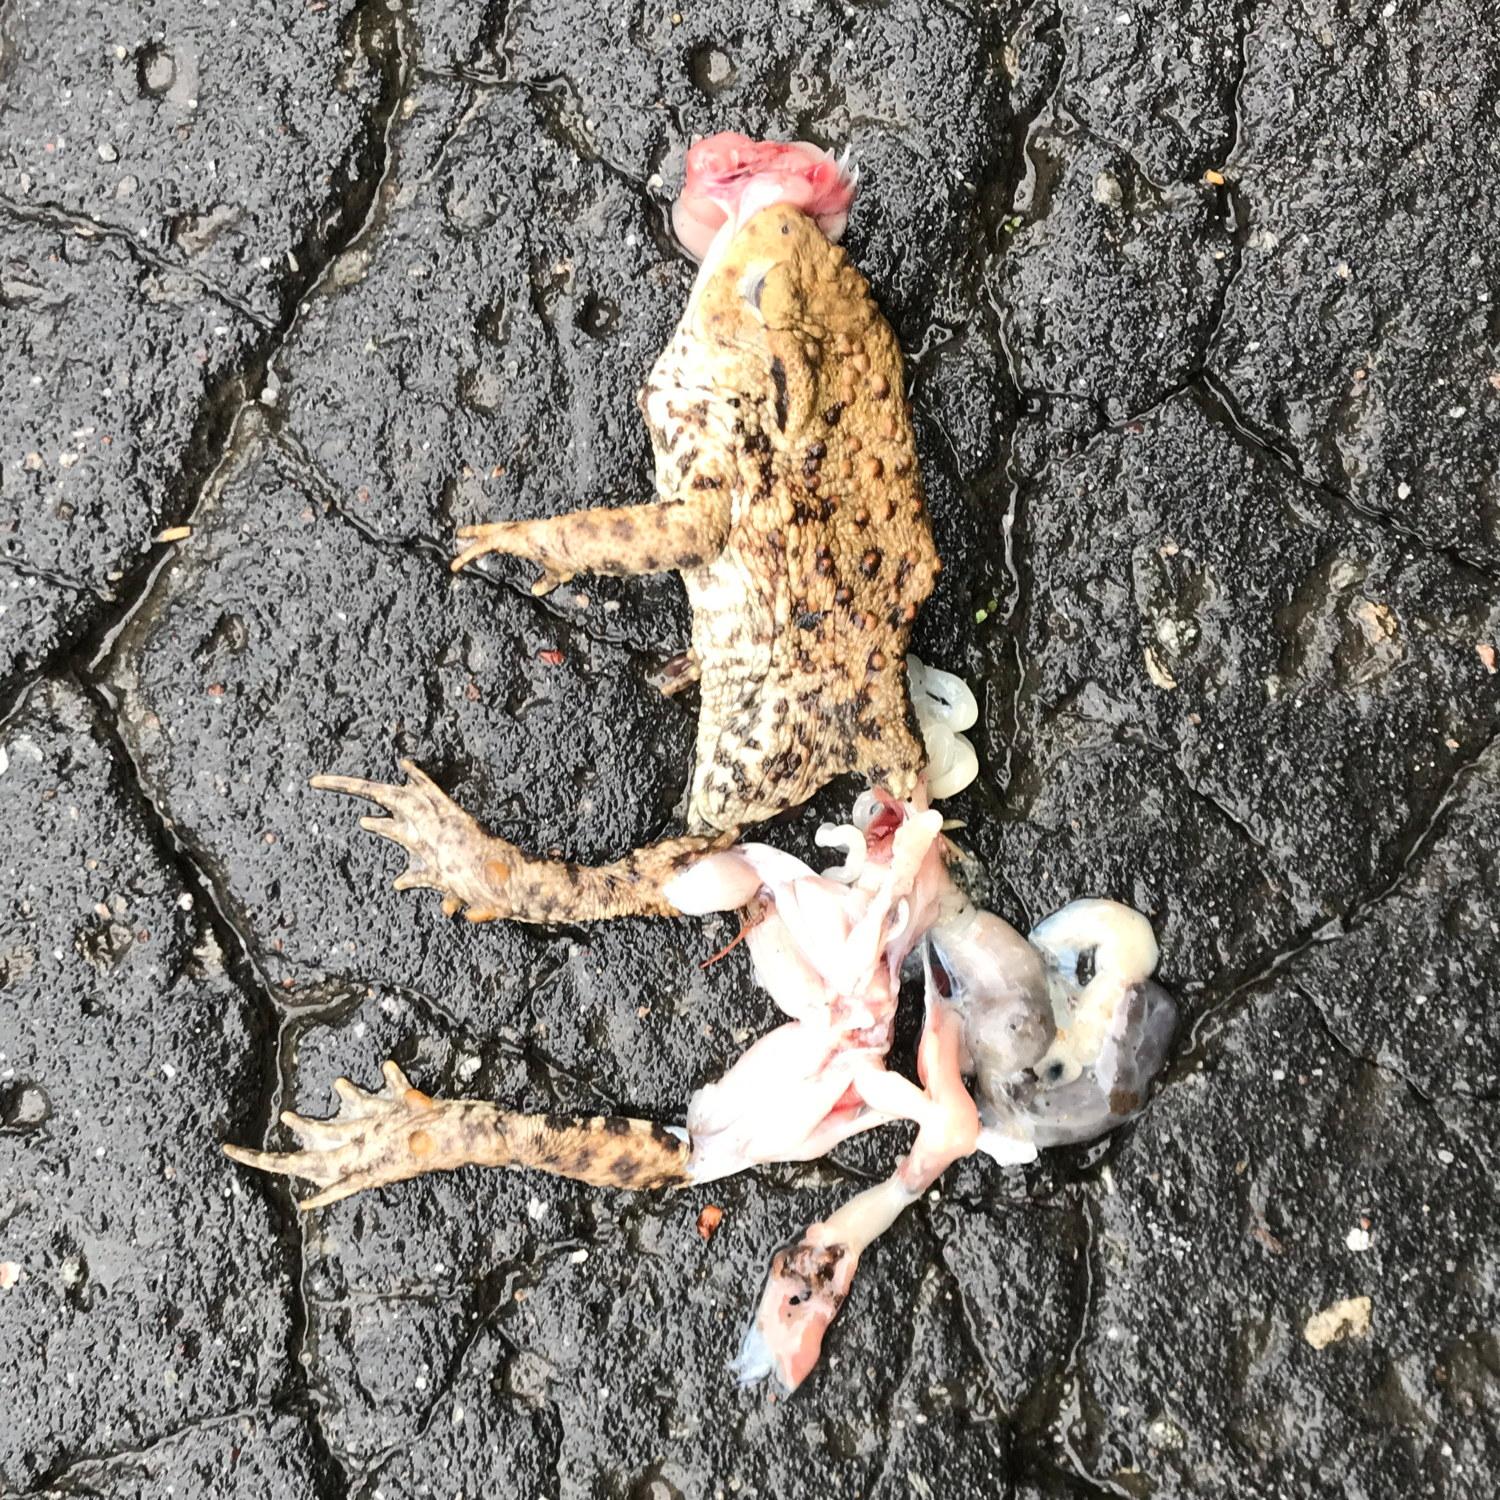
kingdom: Animalia
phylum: Chordata
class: Amphibia
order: Anura
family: Bufonidae
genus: Bufo
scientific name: Bufo bufo
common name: Common toad
